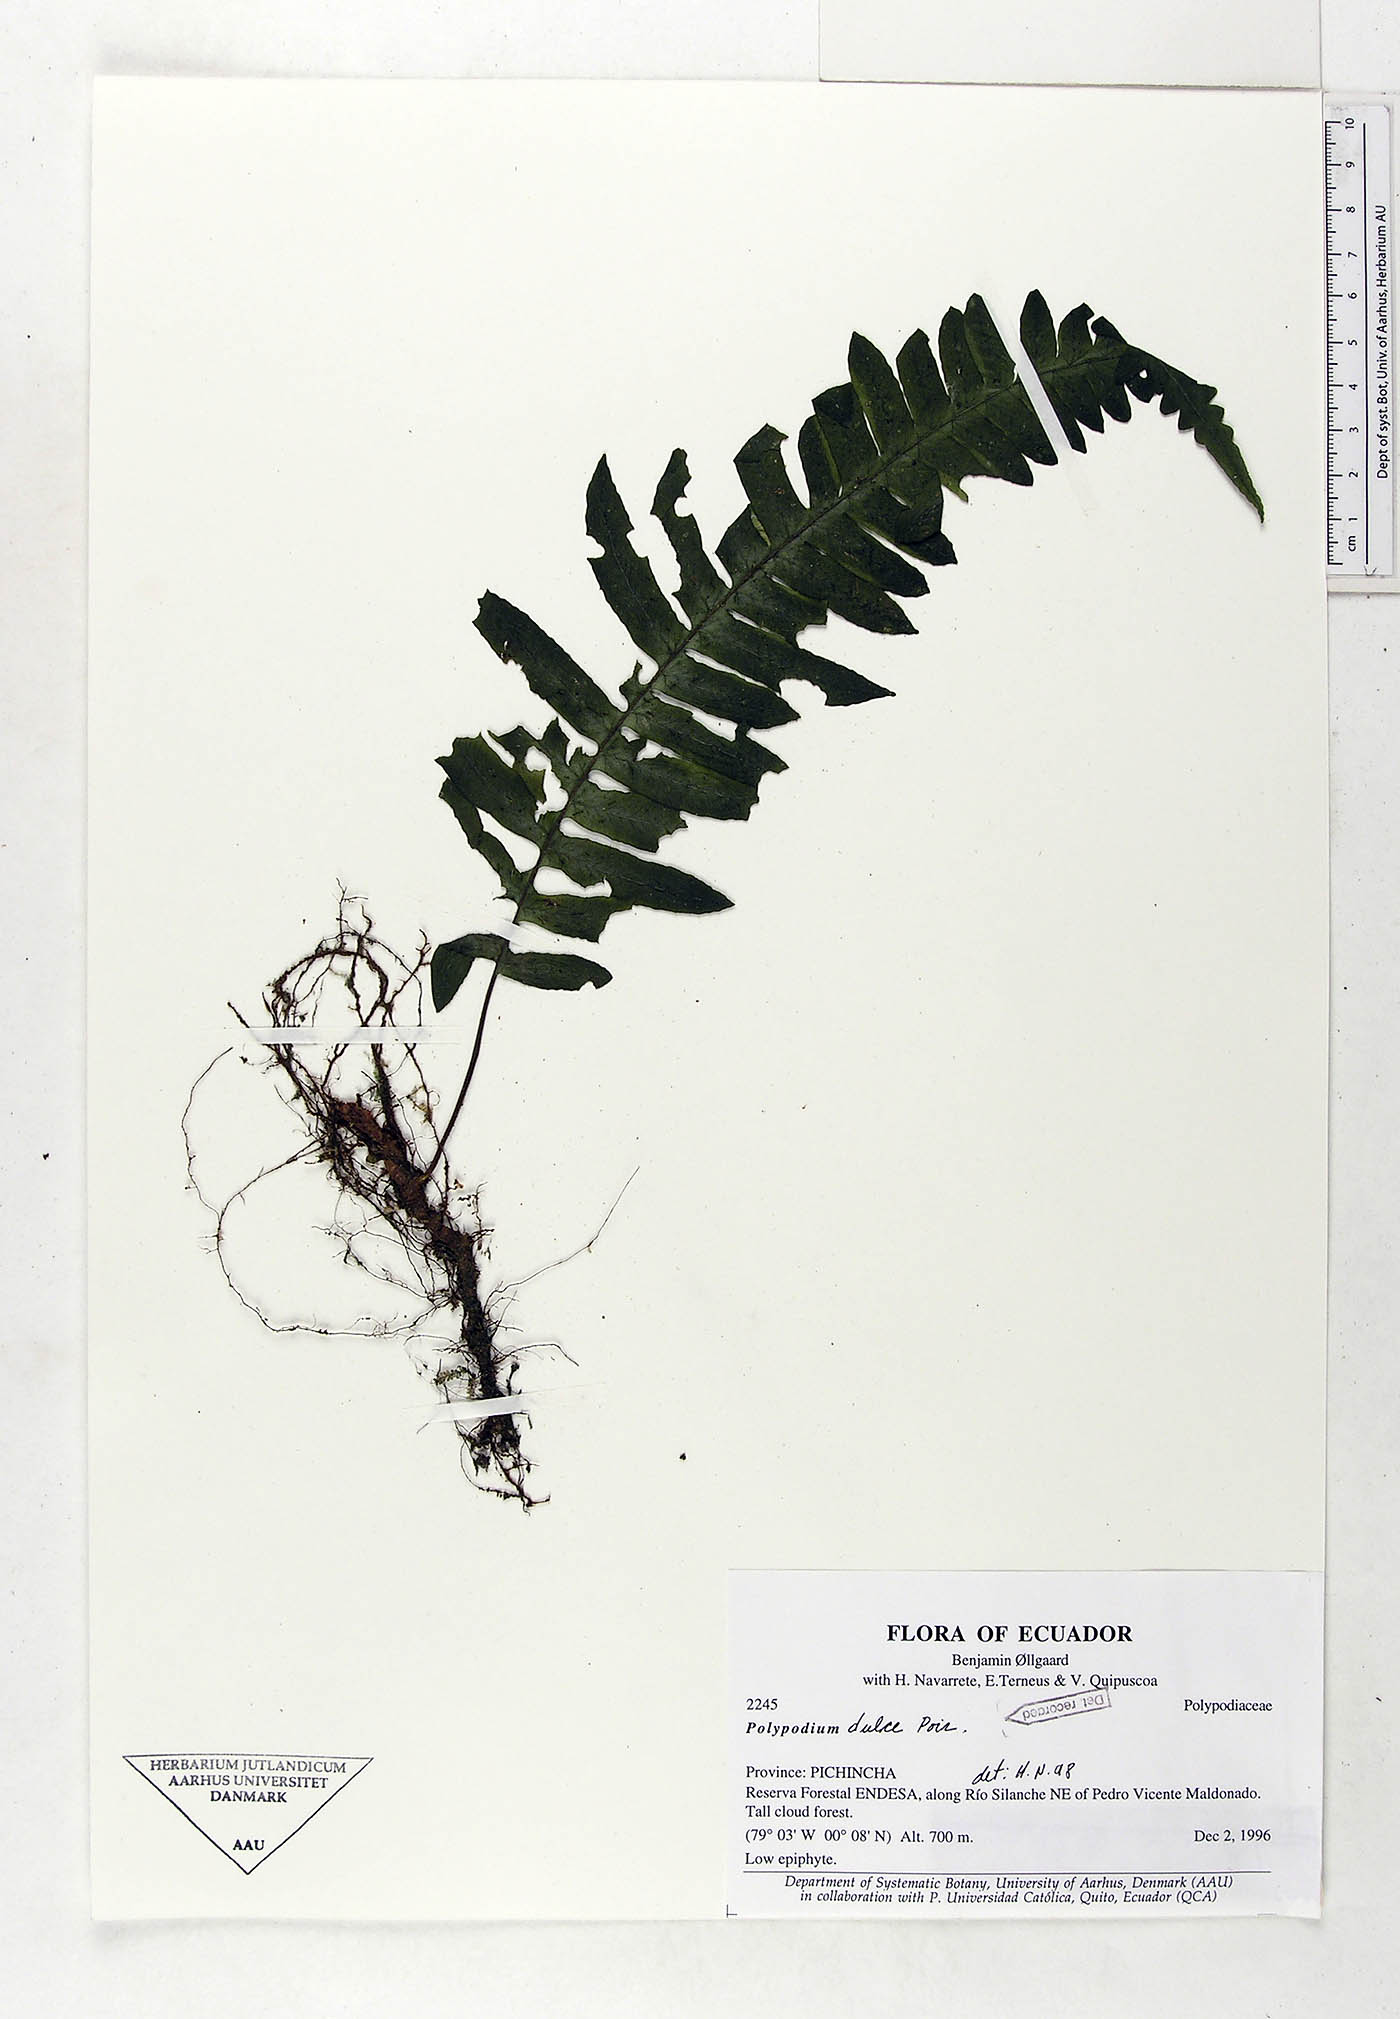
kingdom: Plantae
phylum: Tracheophyta
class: Polypodiopsida
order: Polypodiales
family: Polypodiaceae
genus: Pecluma
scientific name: Pecluma dulcis
